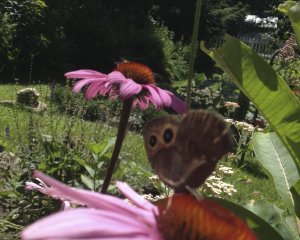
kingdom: Animalia
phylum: Arthropoda
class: Insecta
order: Lepidoptera
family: Nymphalidae
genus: Cercyonis
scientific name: Cercyonis pegala
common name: Common Wood-Nymph
